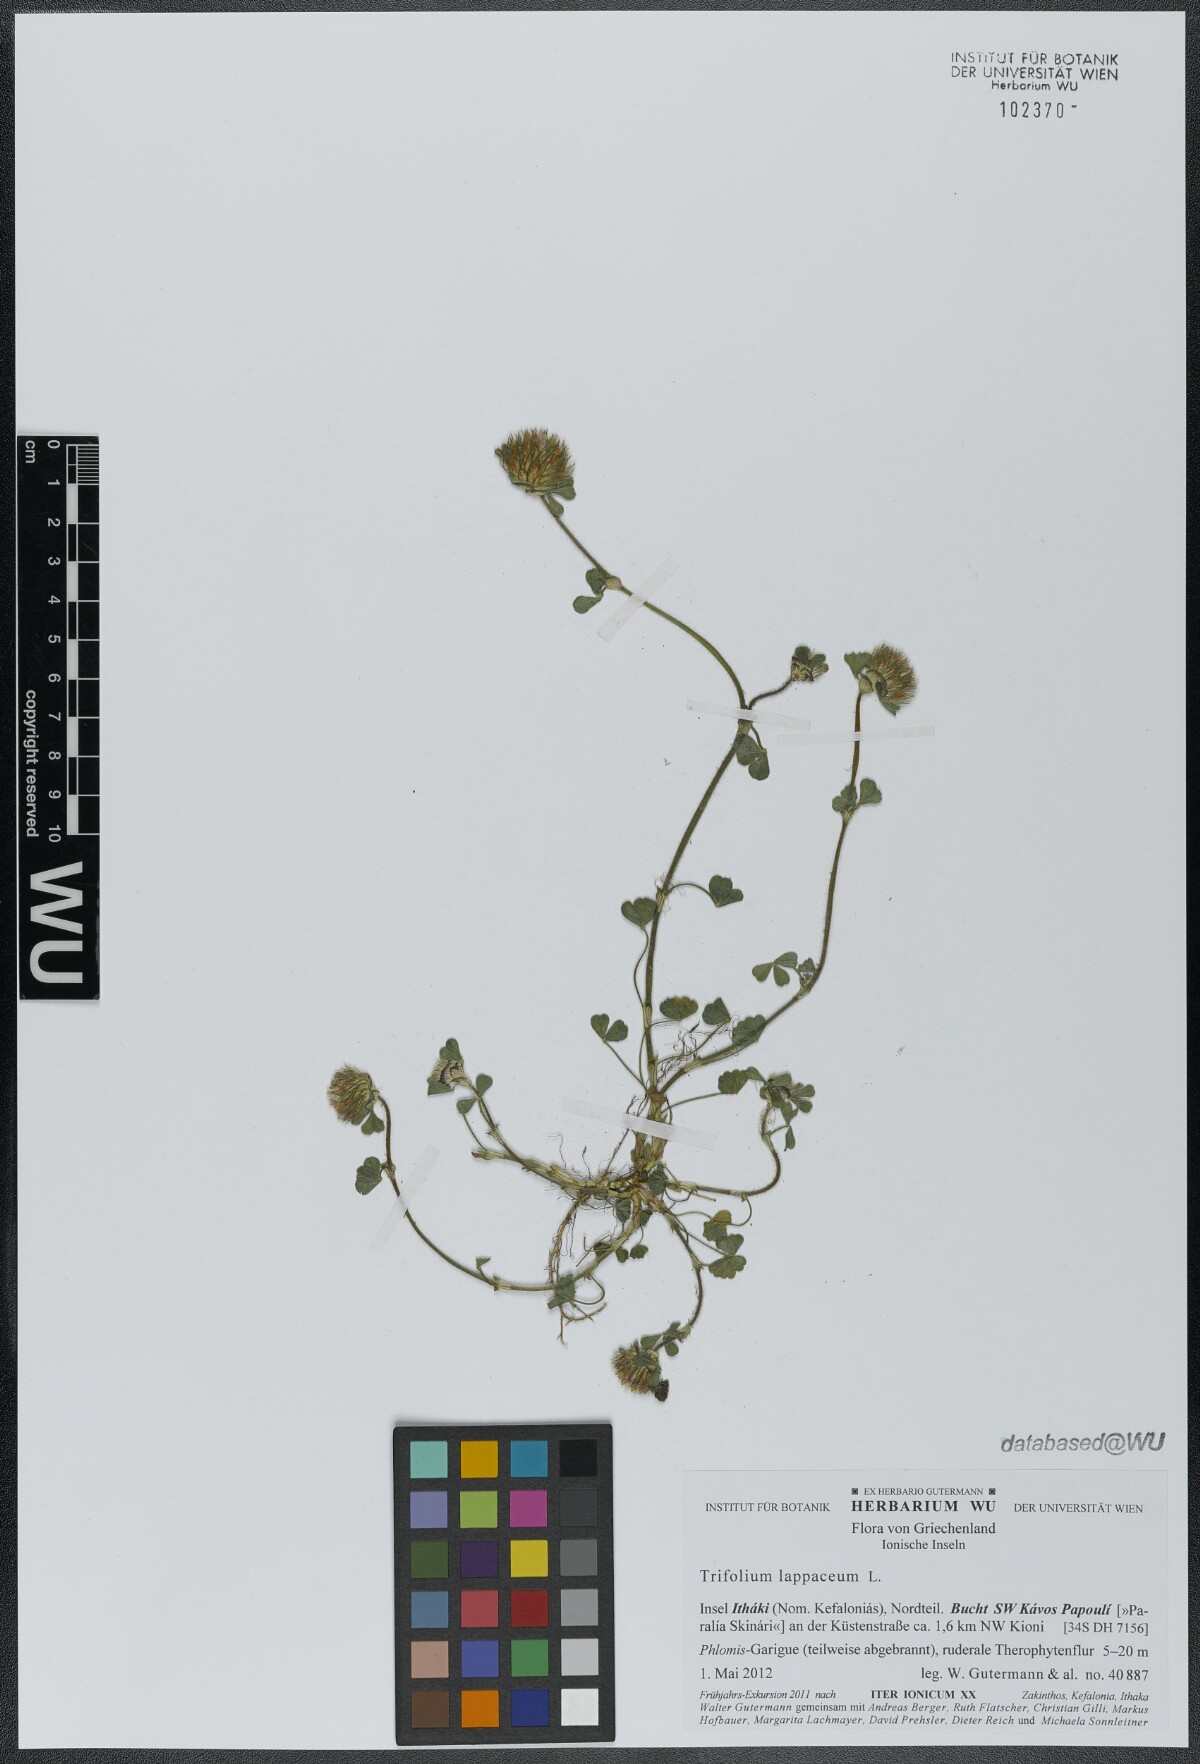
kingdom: Plantae
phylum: Tracheophyta
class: Magnoliopsida
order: Fabales
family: Fabaceae
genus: Trifolium
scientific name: Trifolium lappaceum
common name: Bur clover
